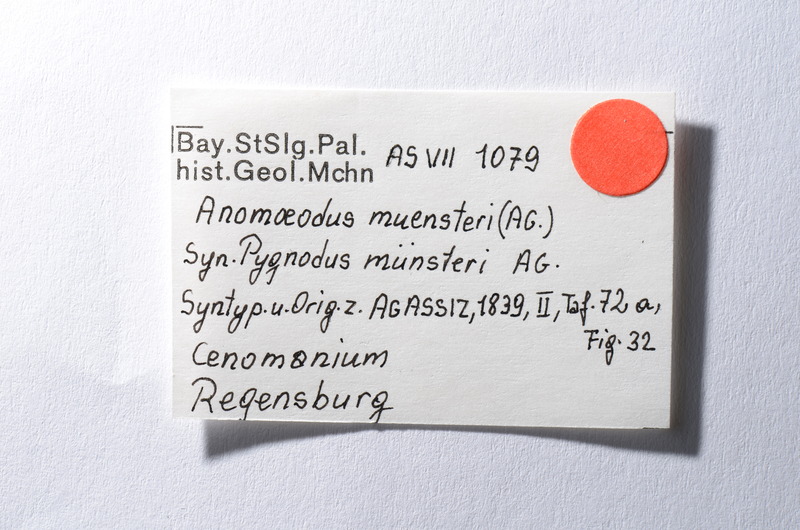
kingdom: Animalia
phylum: Chordata
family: Pycnodontidae
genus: Anomoeodus
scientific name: Anomoeodus
